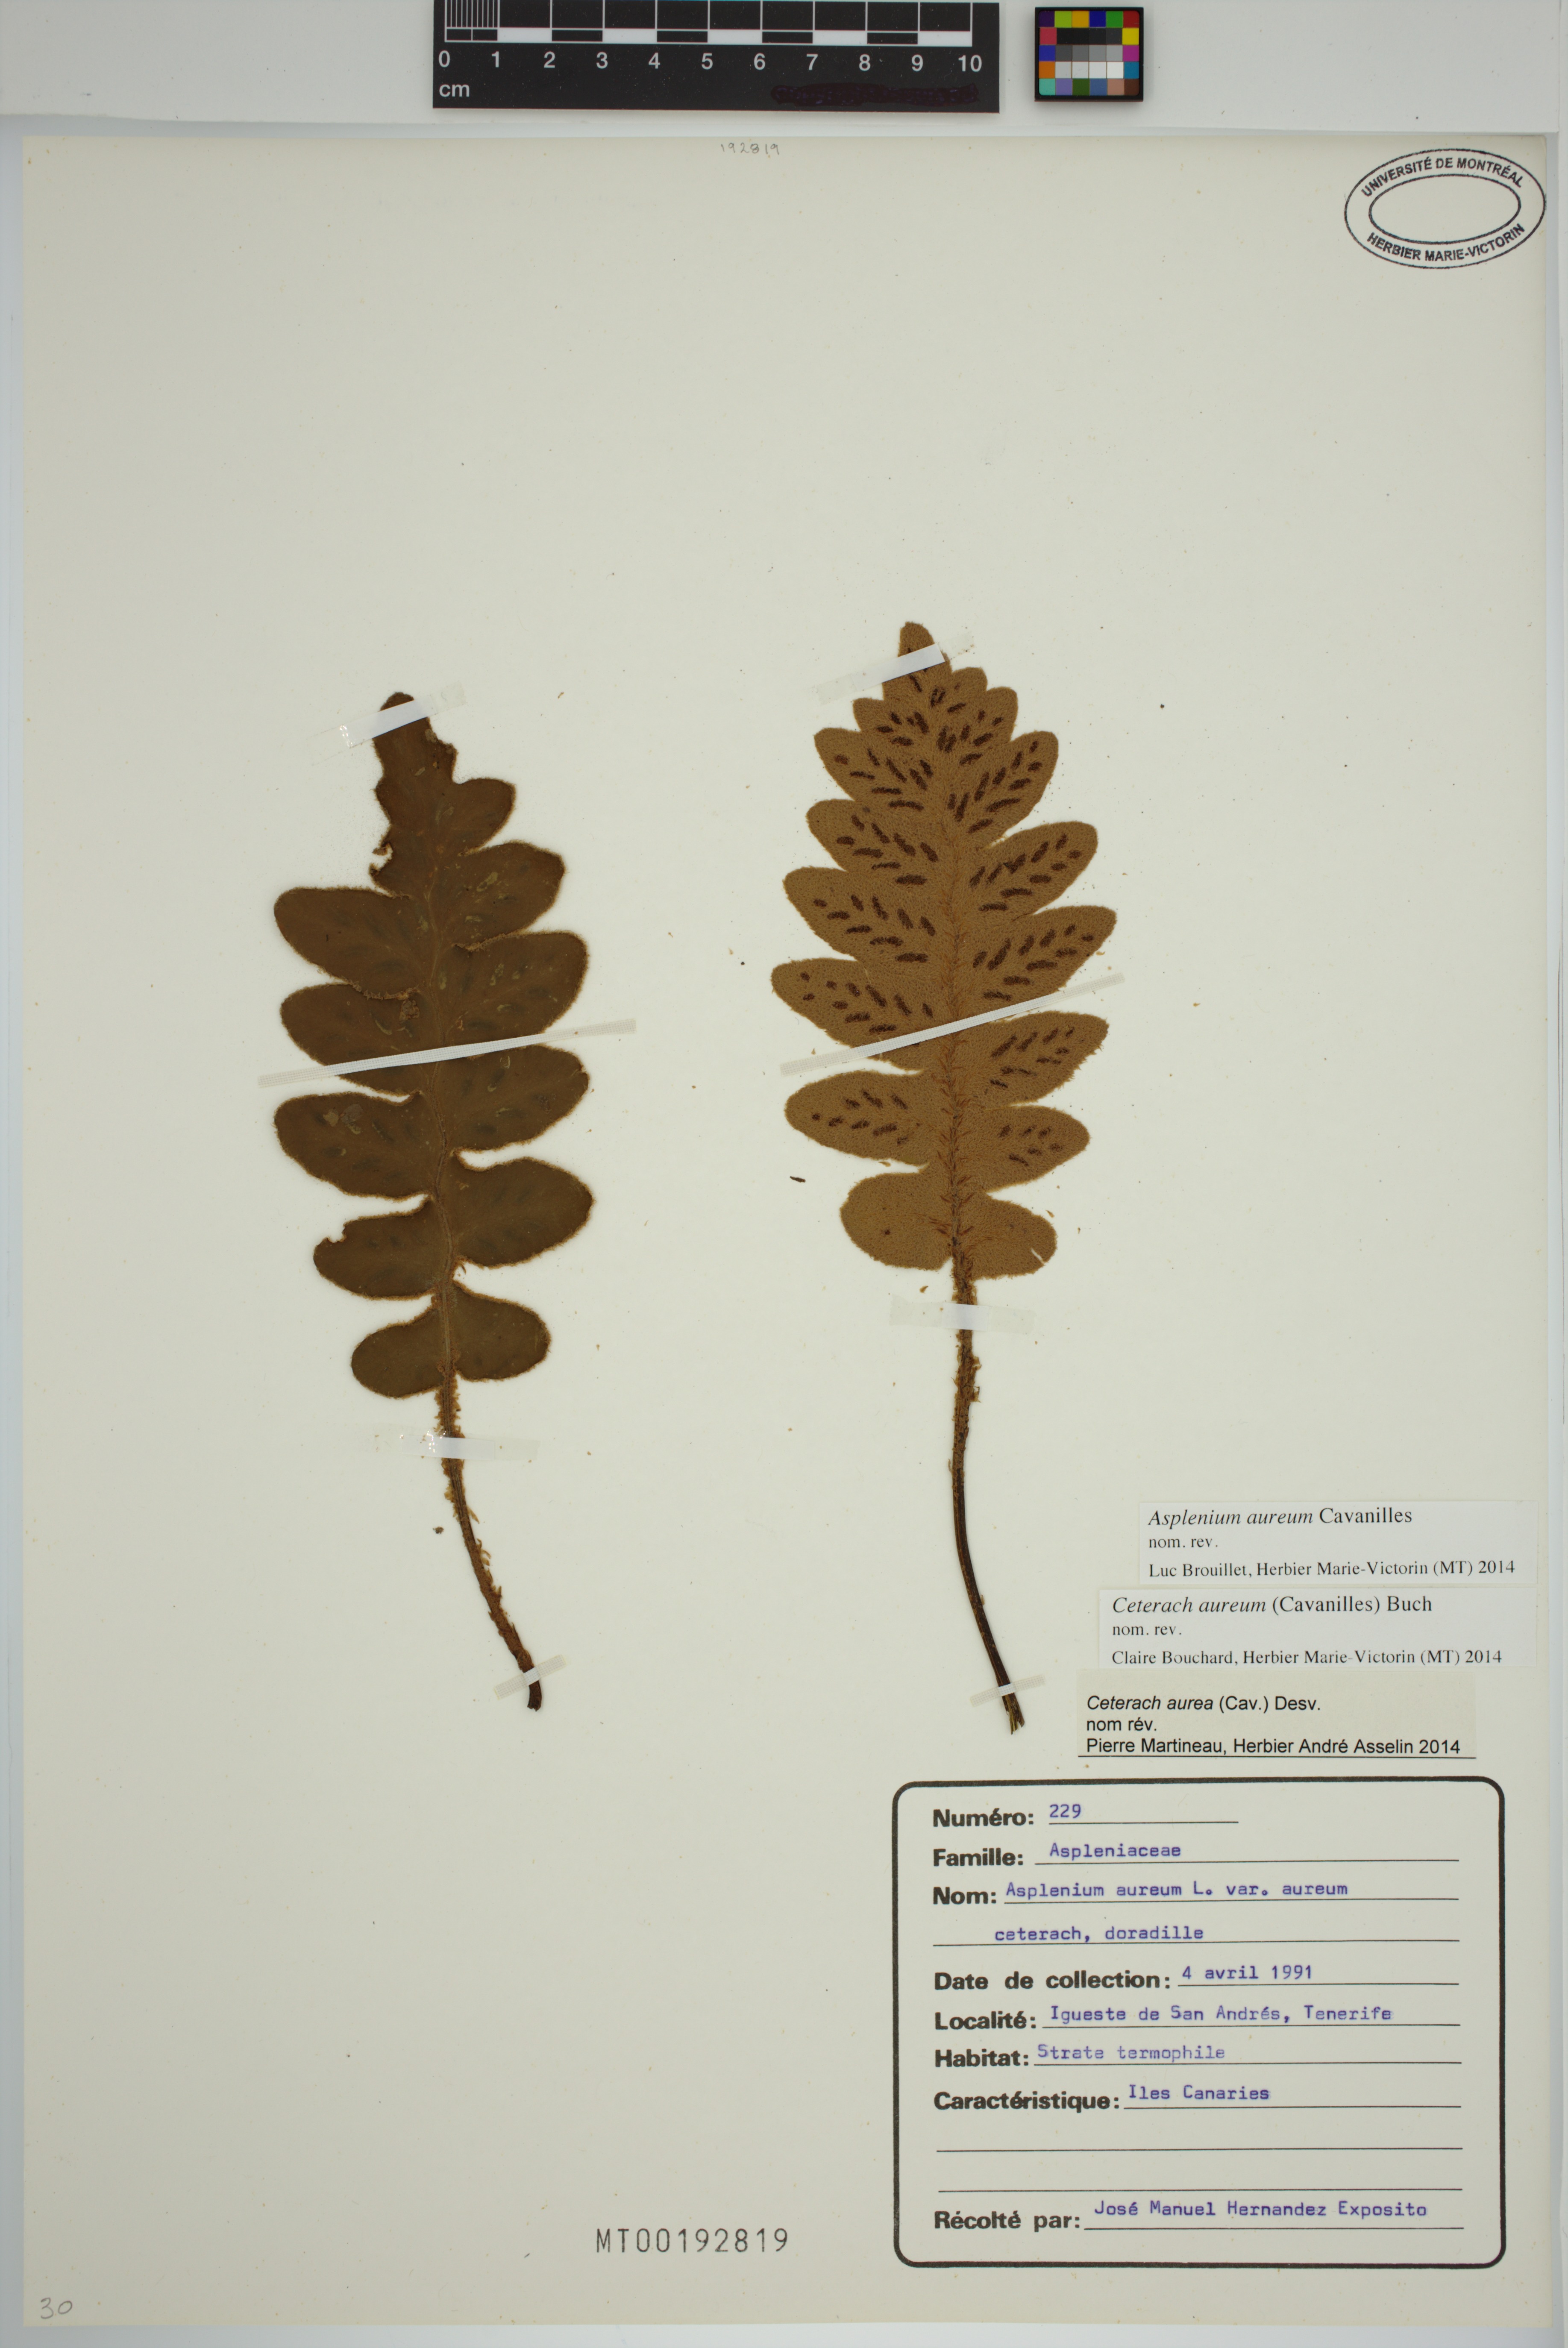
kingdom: Plantae
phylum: Tracheophyta
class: Polypodiopsida
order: Polypodiales
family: Aspleniaceae
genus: Asplenium
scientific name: Asplenium aureum
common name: Golden rustyback fern
